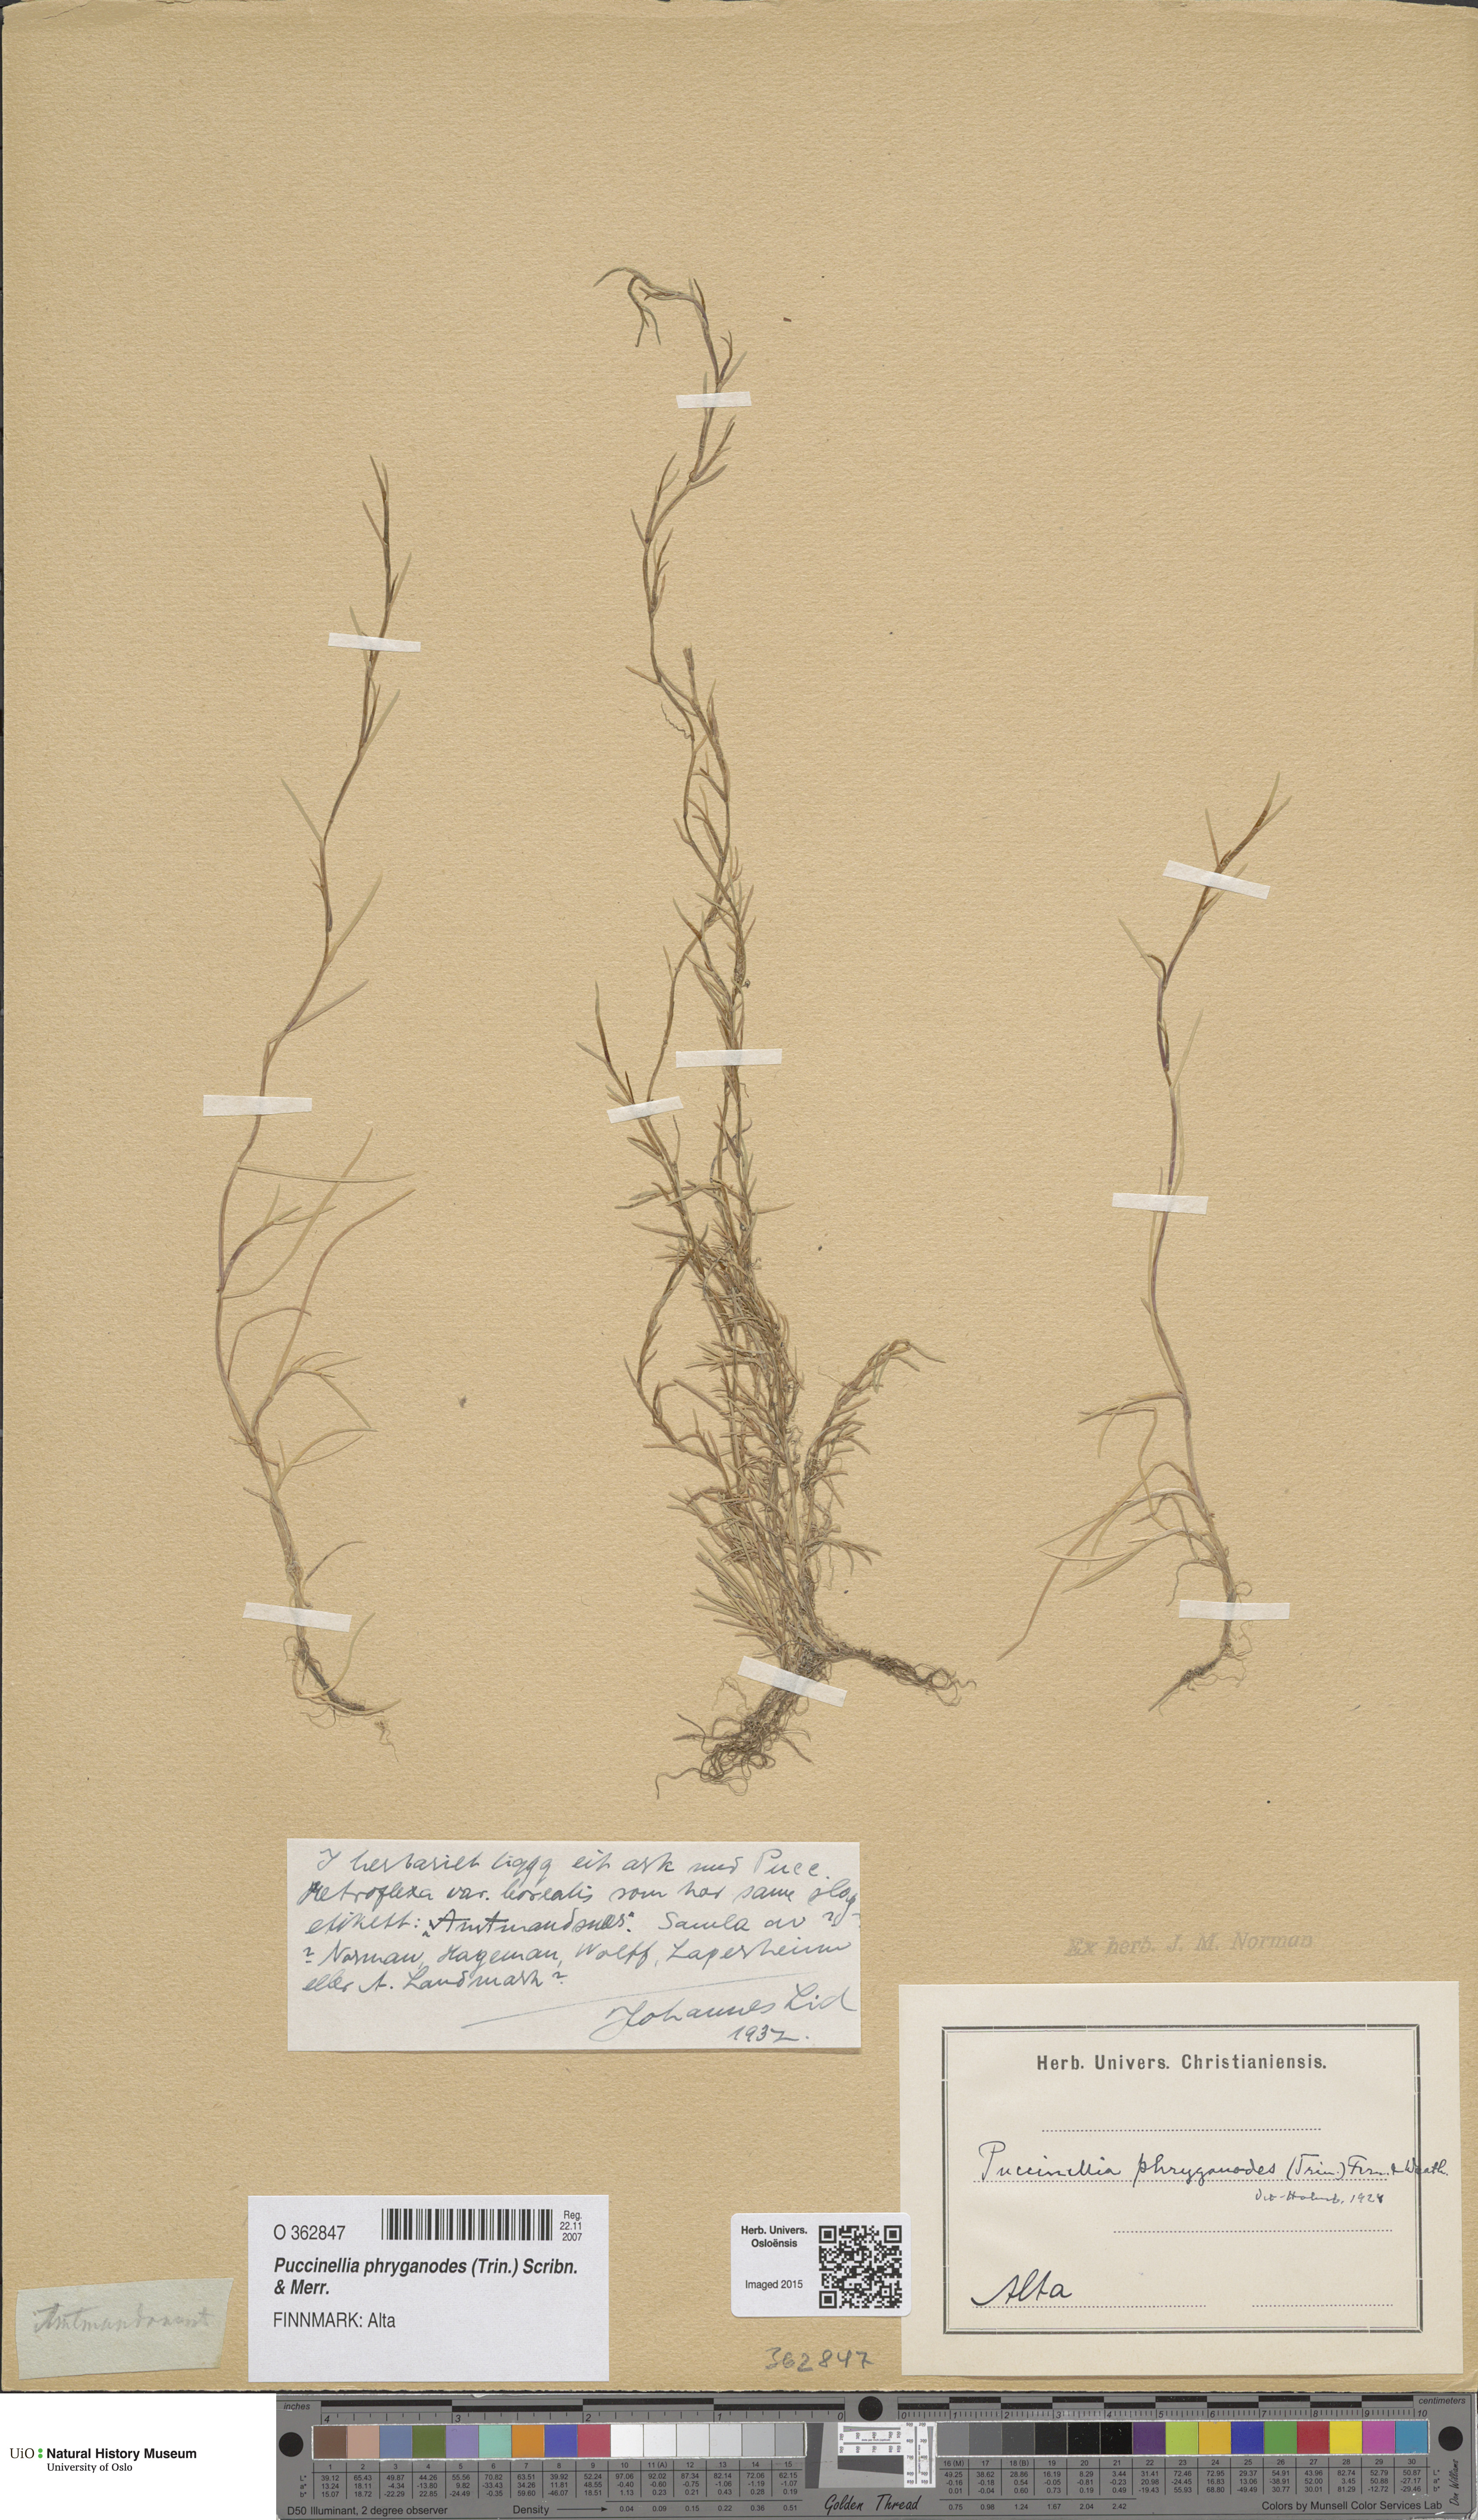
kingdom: Plantae
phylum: Tracheophyta
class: Liliopsida
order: Poales
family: Poaceae
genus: Puccinellia
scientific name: Puccinellia phryganodes
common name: Creeping alkaligrass
